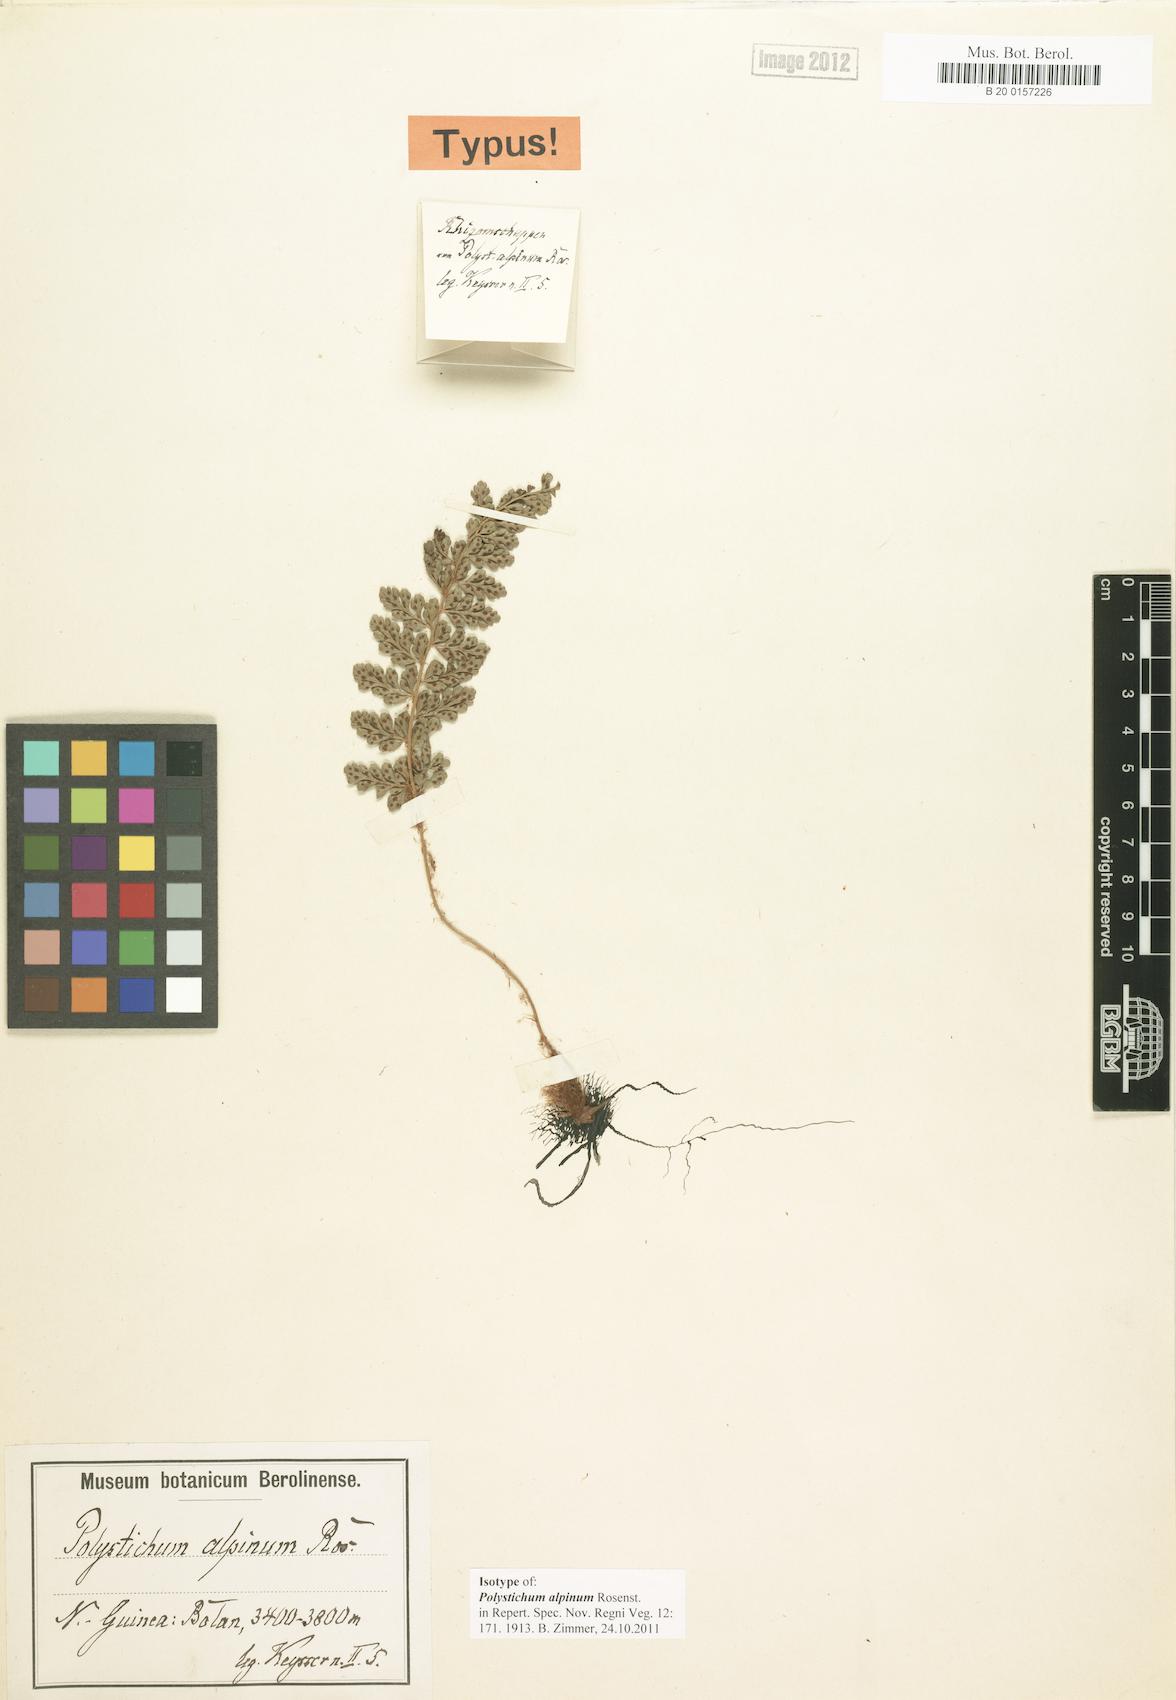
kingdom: Plantae
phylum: Tracheophyta
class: Polypodiopsida
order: Polypodiales
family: Dryopteridaceae
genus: Polystichum
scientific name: Polystichum alpinum
